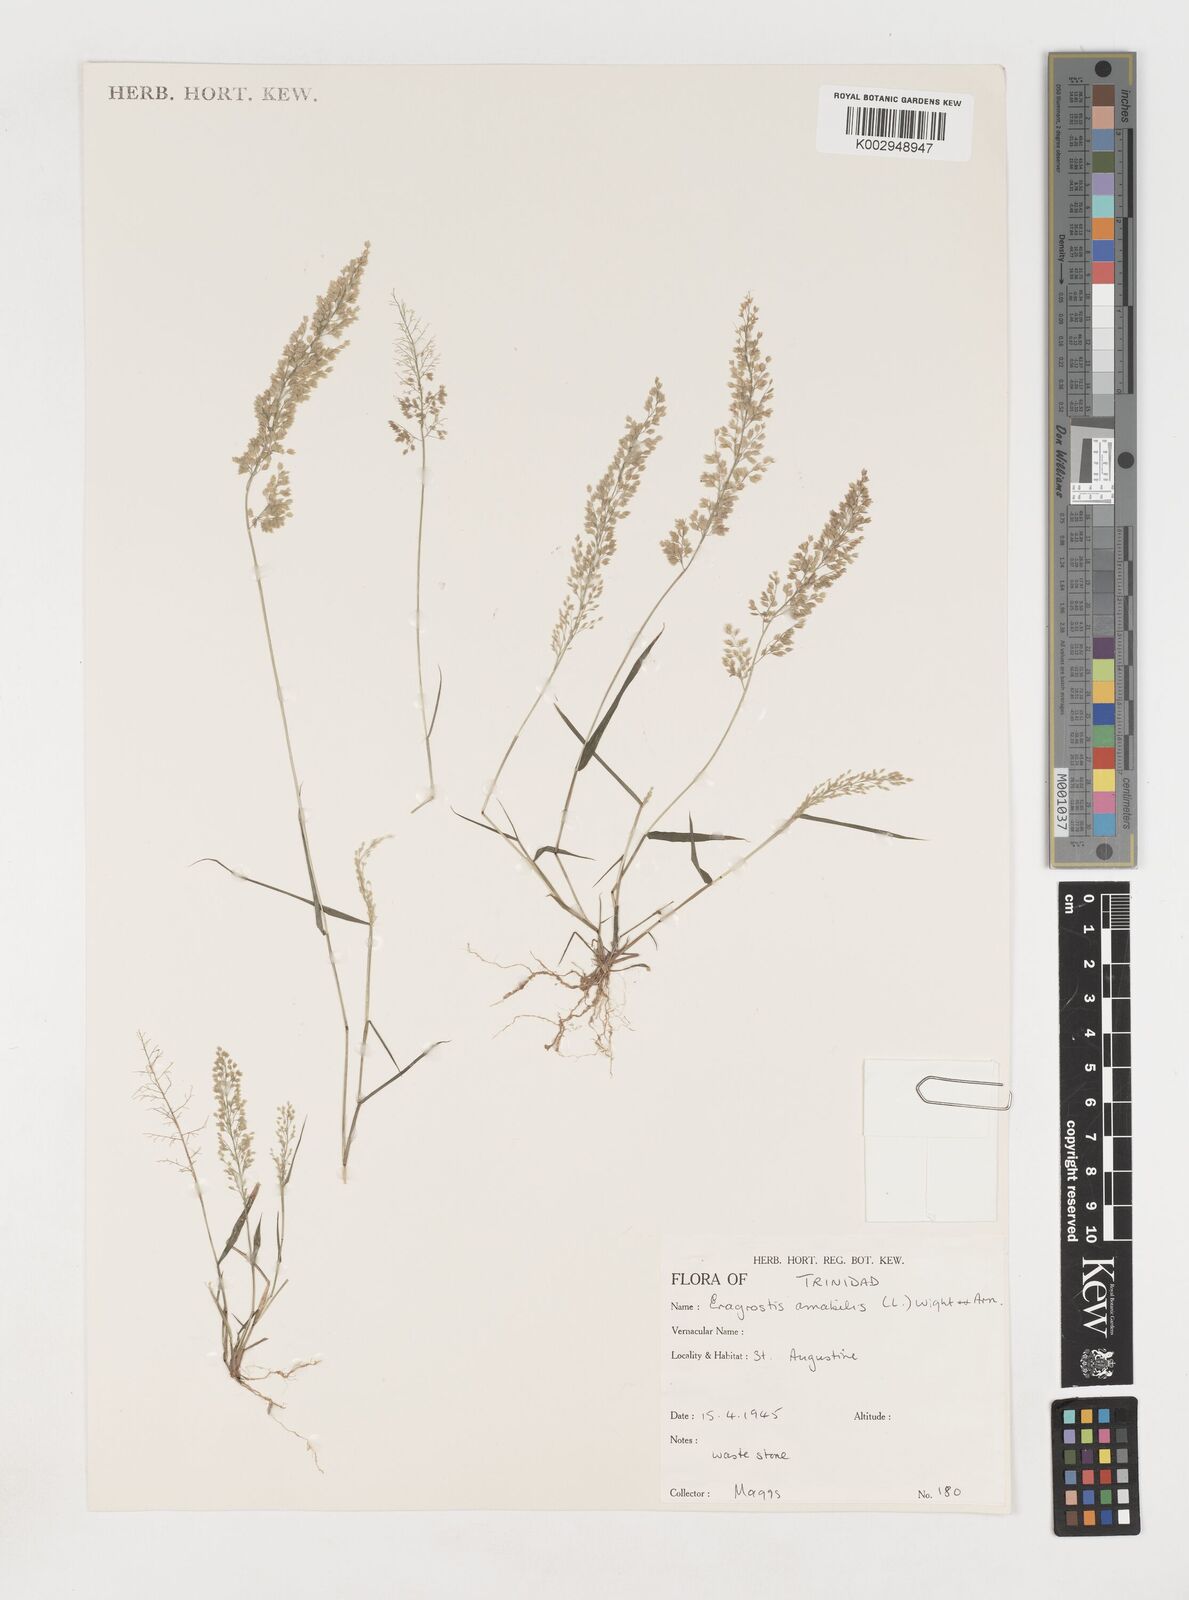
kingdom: Plantae
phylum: Tracheophyta
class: Liliopsida
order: Poales
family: Poaceae
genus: Eragrostis
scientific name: Eragrostis tenella
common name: Japanese lovegrass
